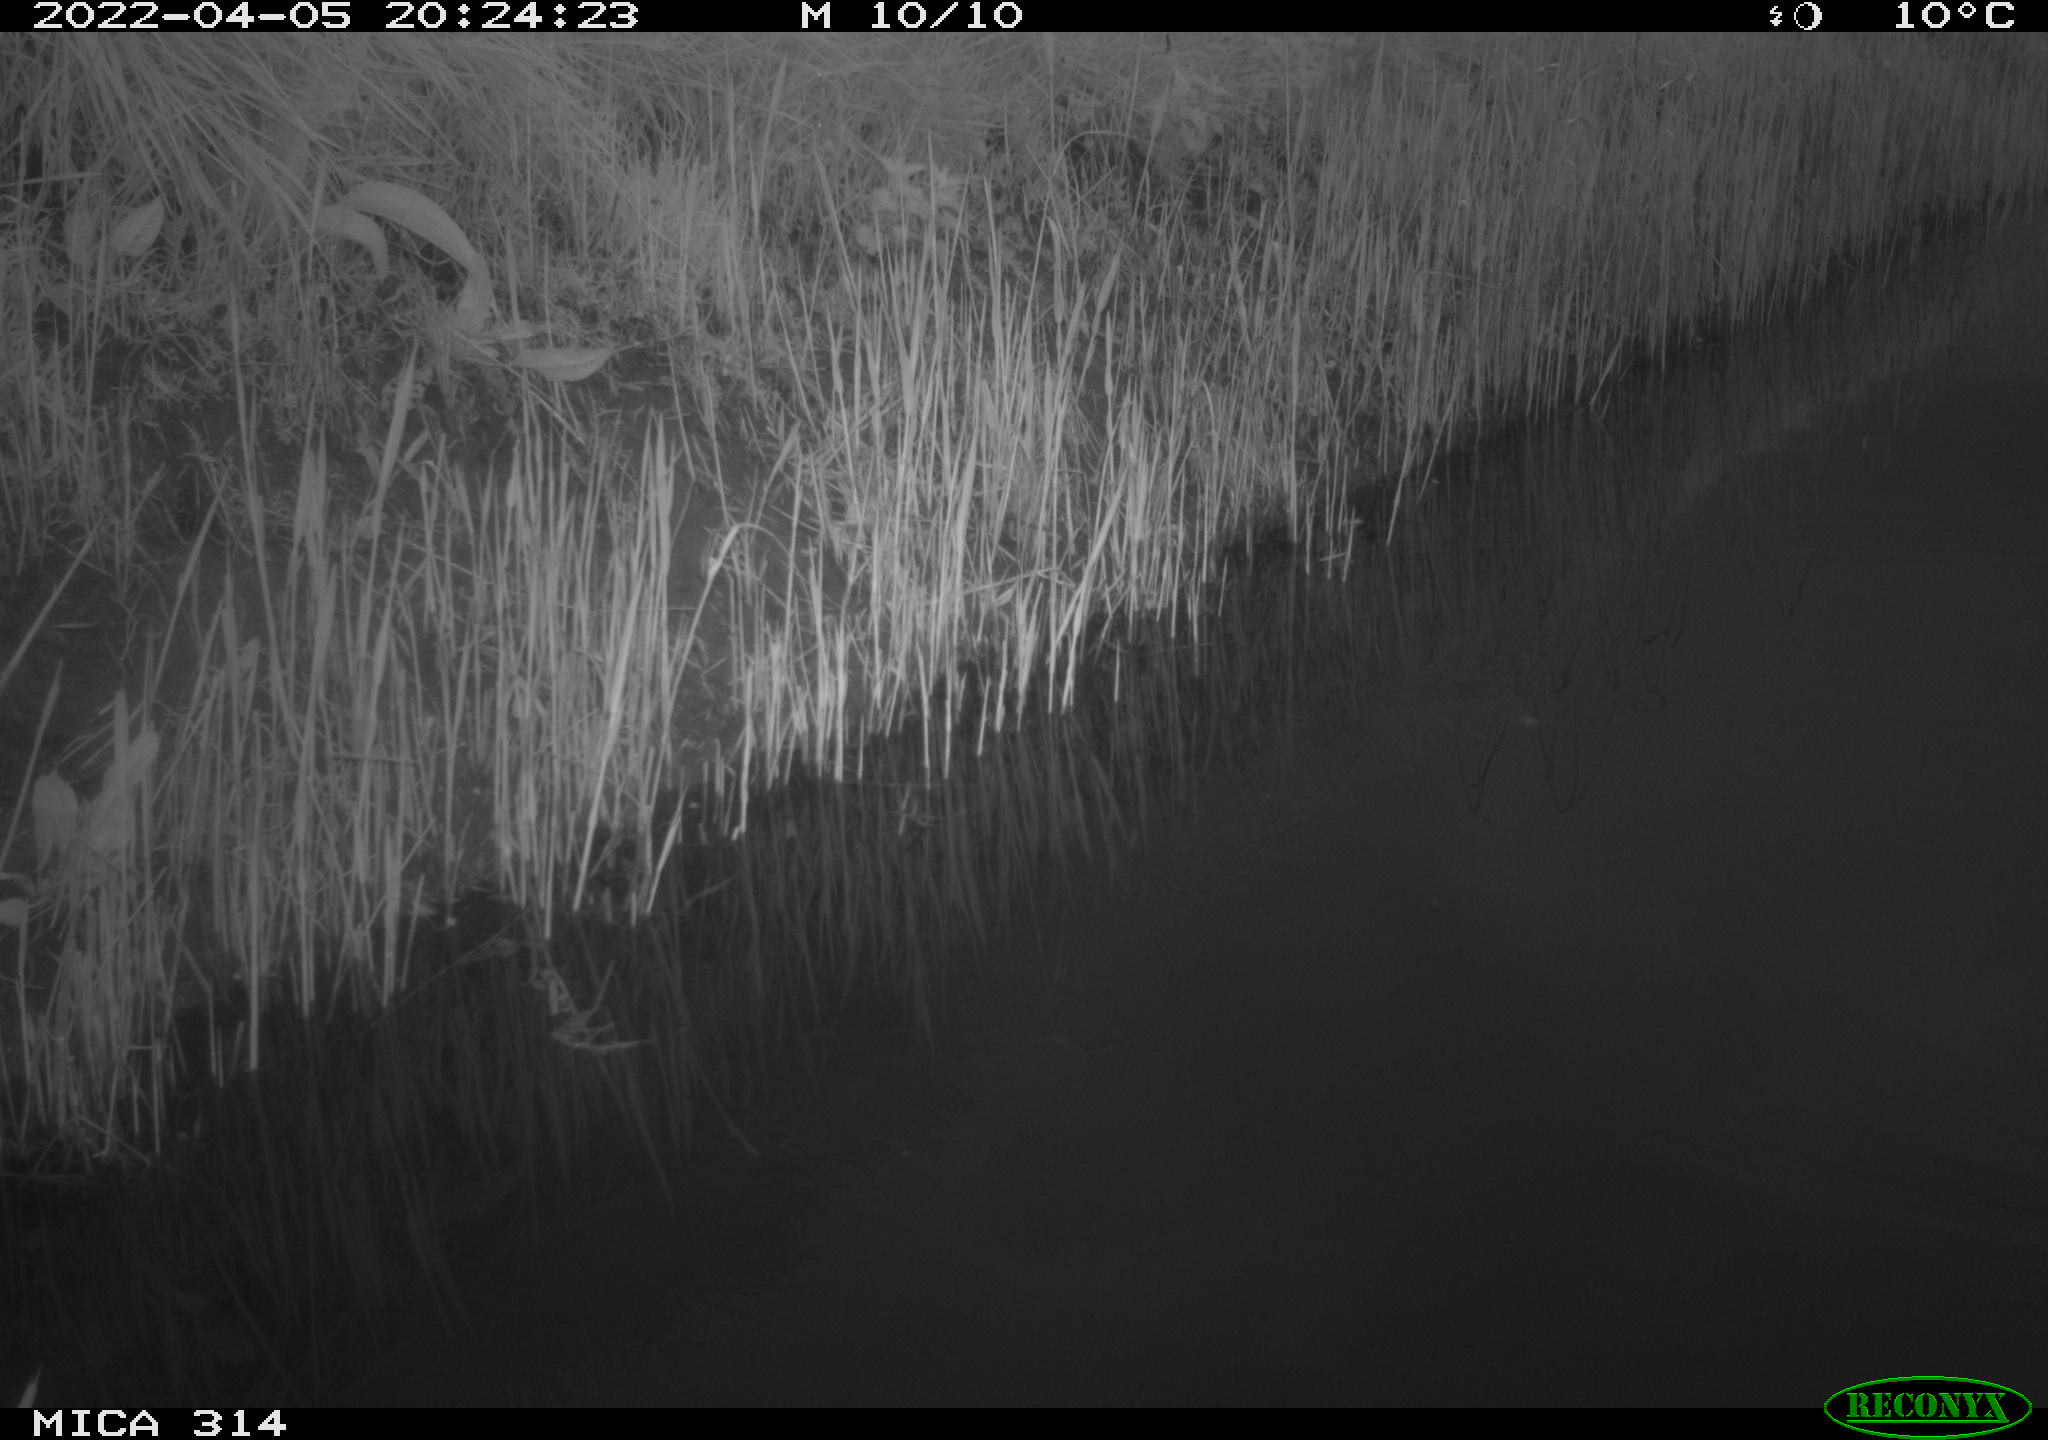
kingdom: Animalia
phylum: Chordata
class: Aves
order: Gruiformes
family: Rallidae
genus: Gallinula
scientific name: Gallinula chloropus
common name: Common moorhen
